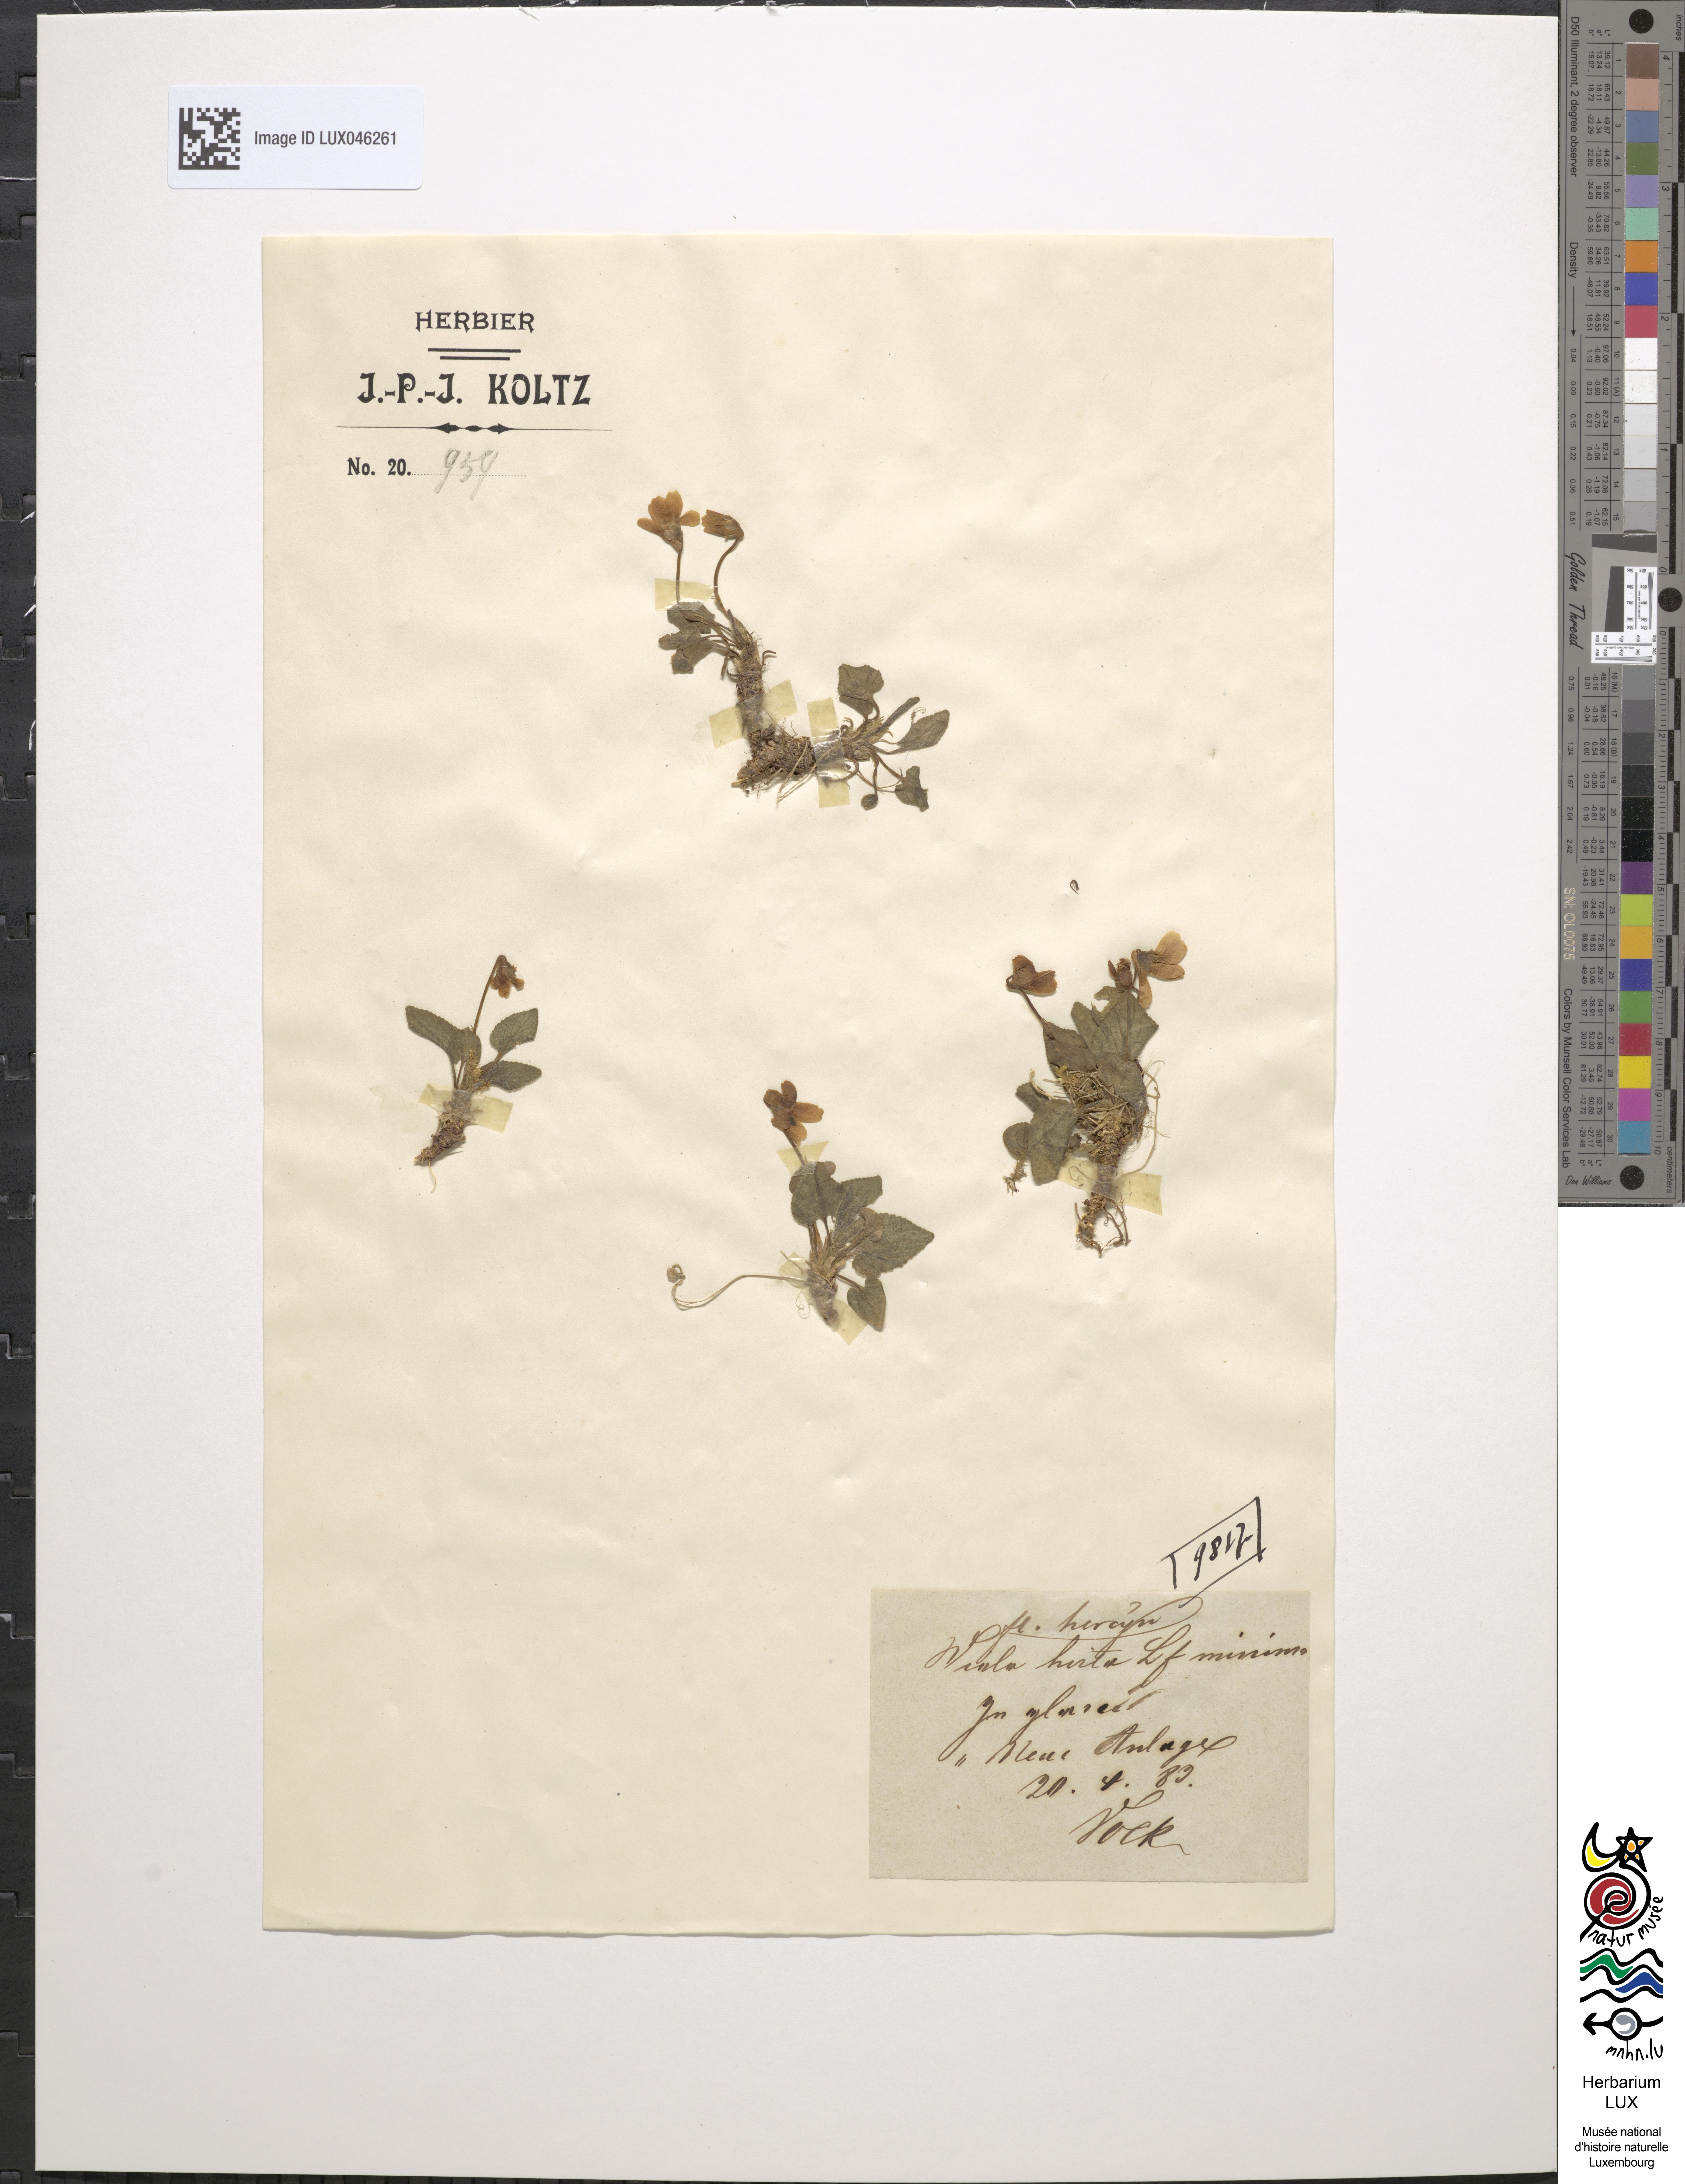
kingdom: Plantae
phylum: Tracheophyta
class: Magnoliopsida
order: Malpighiales
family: Violaceae
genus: Viola
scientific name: Viola hirta
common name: Hairy violet
